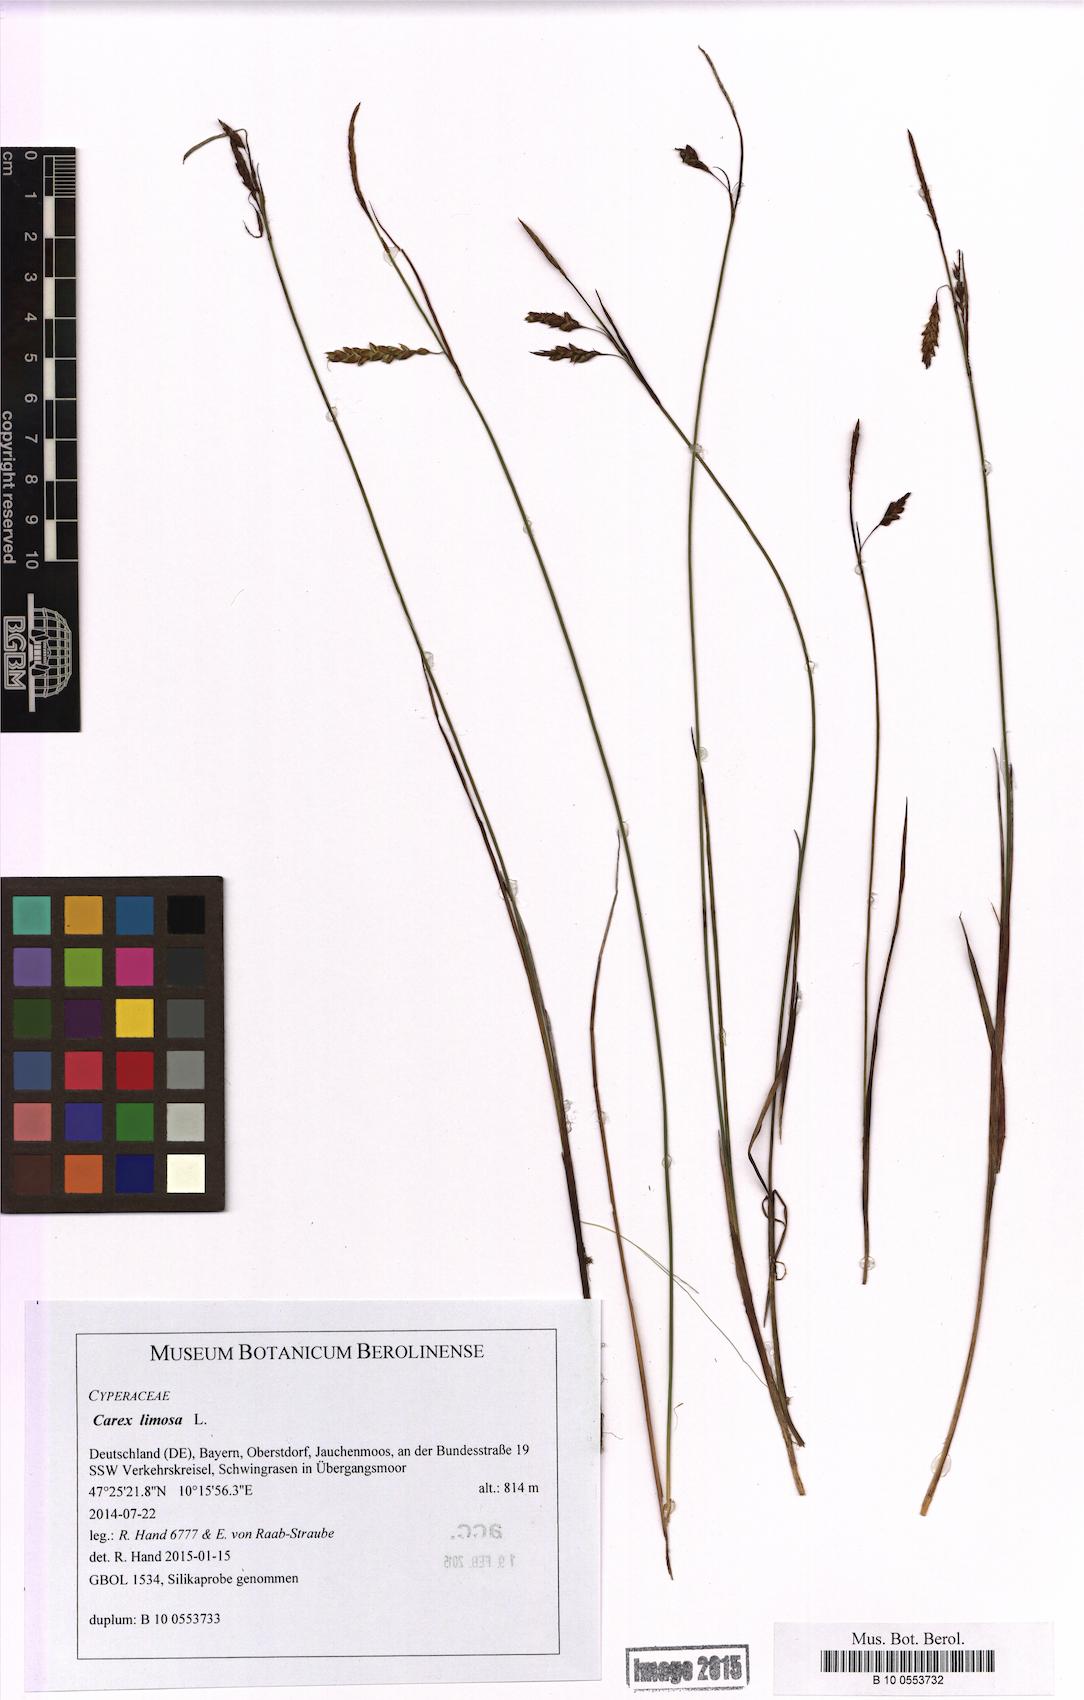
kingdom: Plantae
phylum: Tracheophyta
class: Liliopsida
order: Poales
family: Cyperaceae
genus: Carex
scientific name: Carex limosa
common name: Bog sedge
